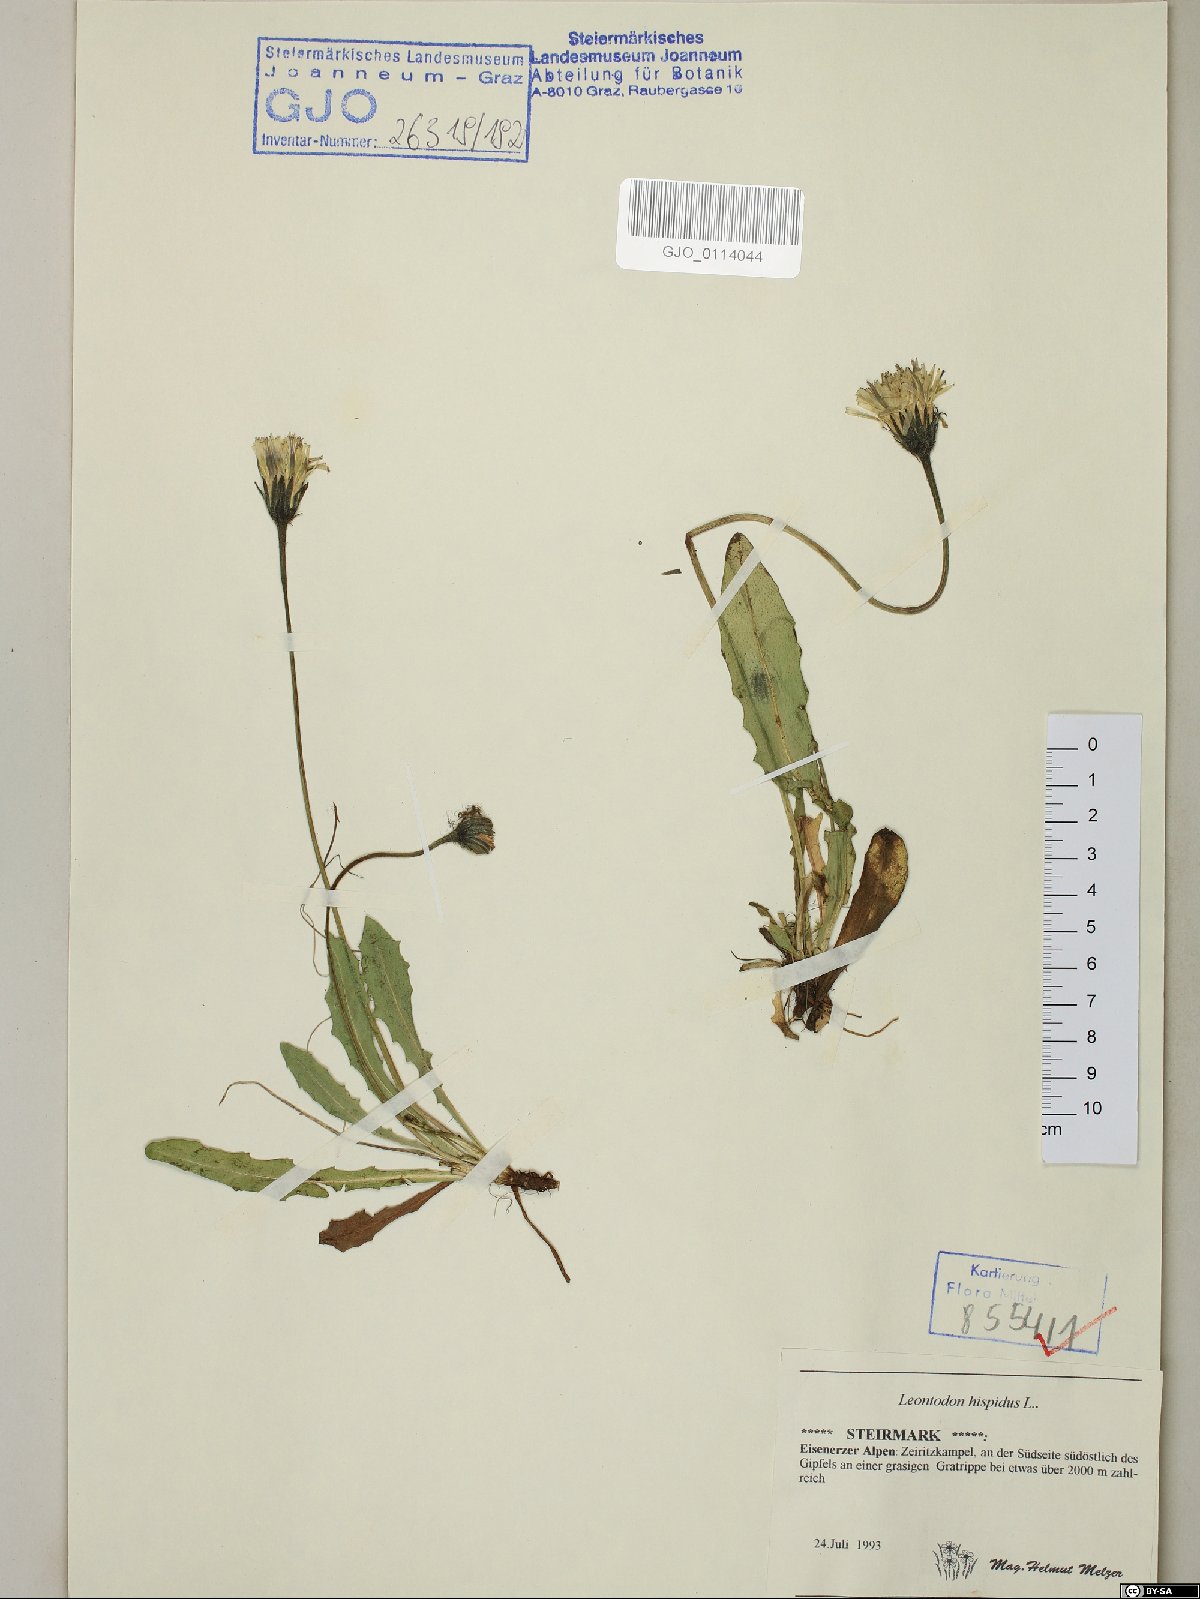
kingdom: Plantae
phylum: Tracheophyta
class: Magnoliopsida
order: Asterales
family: Asteraceae
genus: Leontodon
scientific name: Leontodon hispidus
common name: Rough hawkbit
